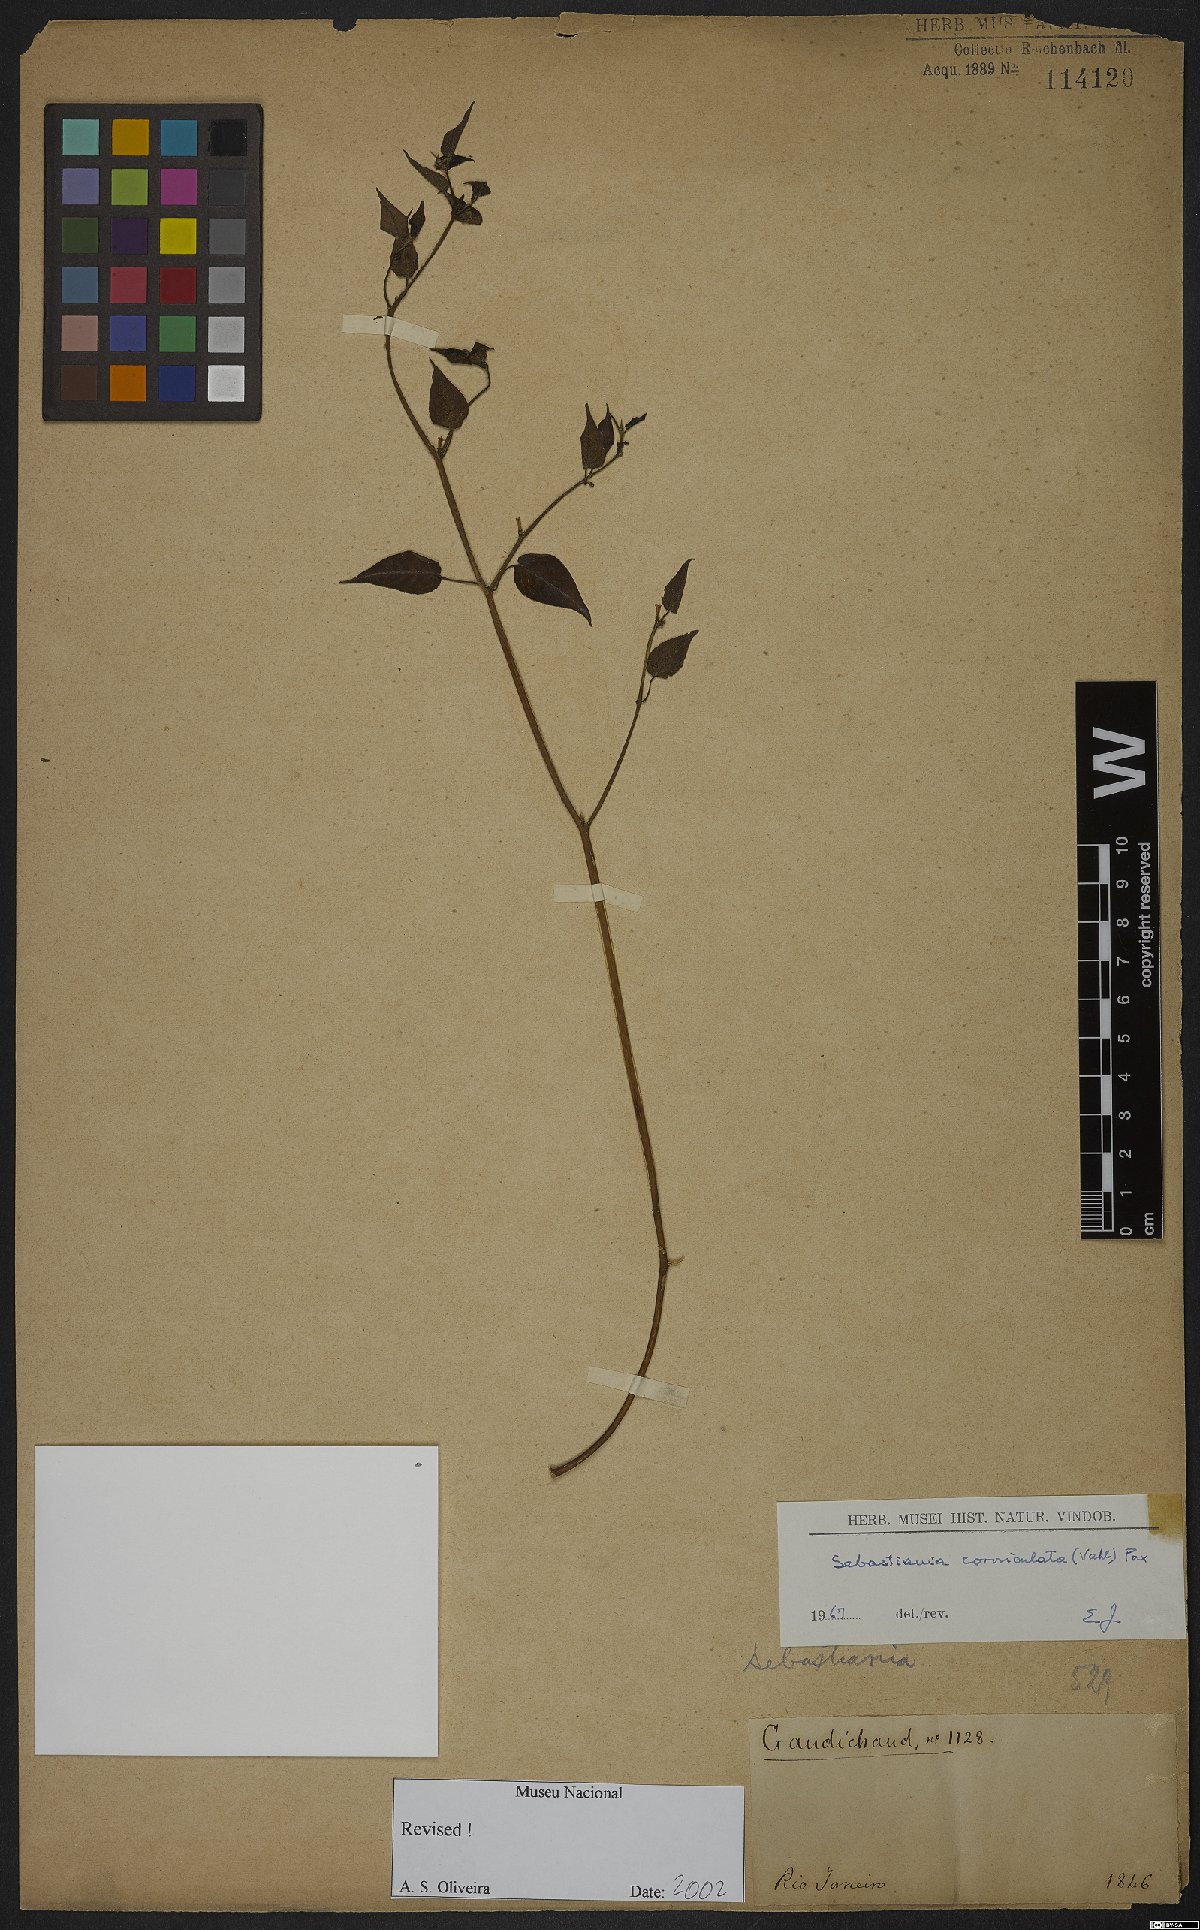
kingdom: Plantae
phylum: Tracheophyta
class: Magnoliopsida
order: Malpighiales
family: Euphorbiaceae
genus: Gymnanthes
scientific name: Gymnanthes glabrata
